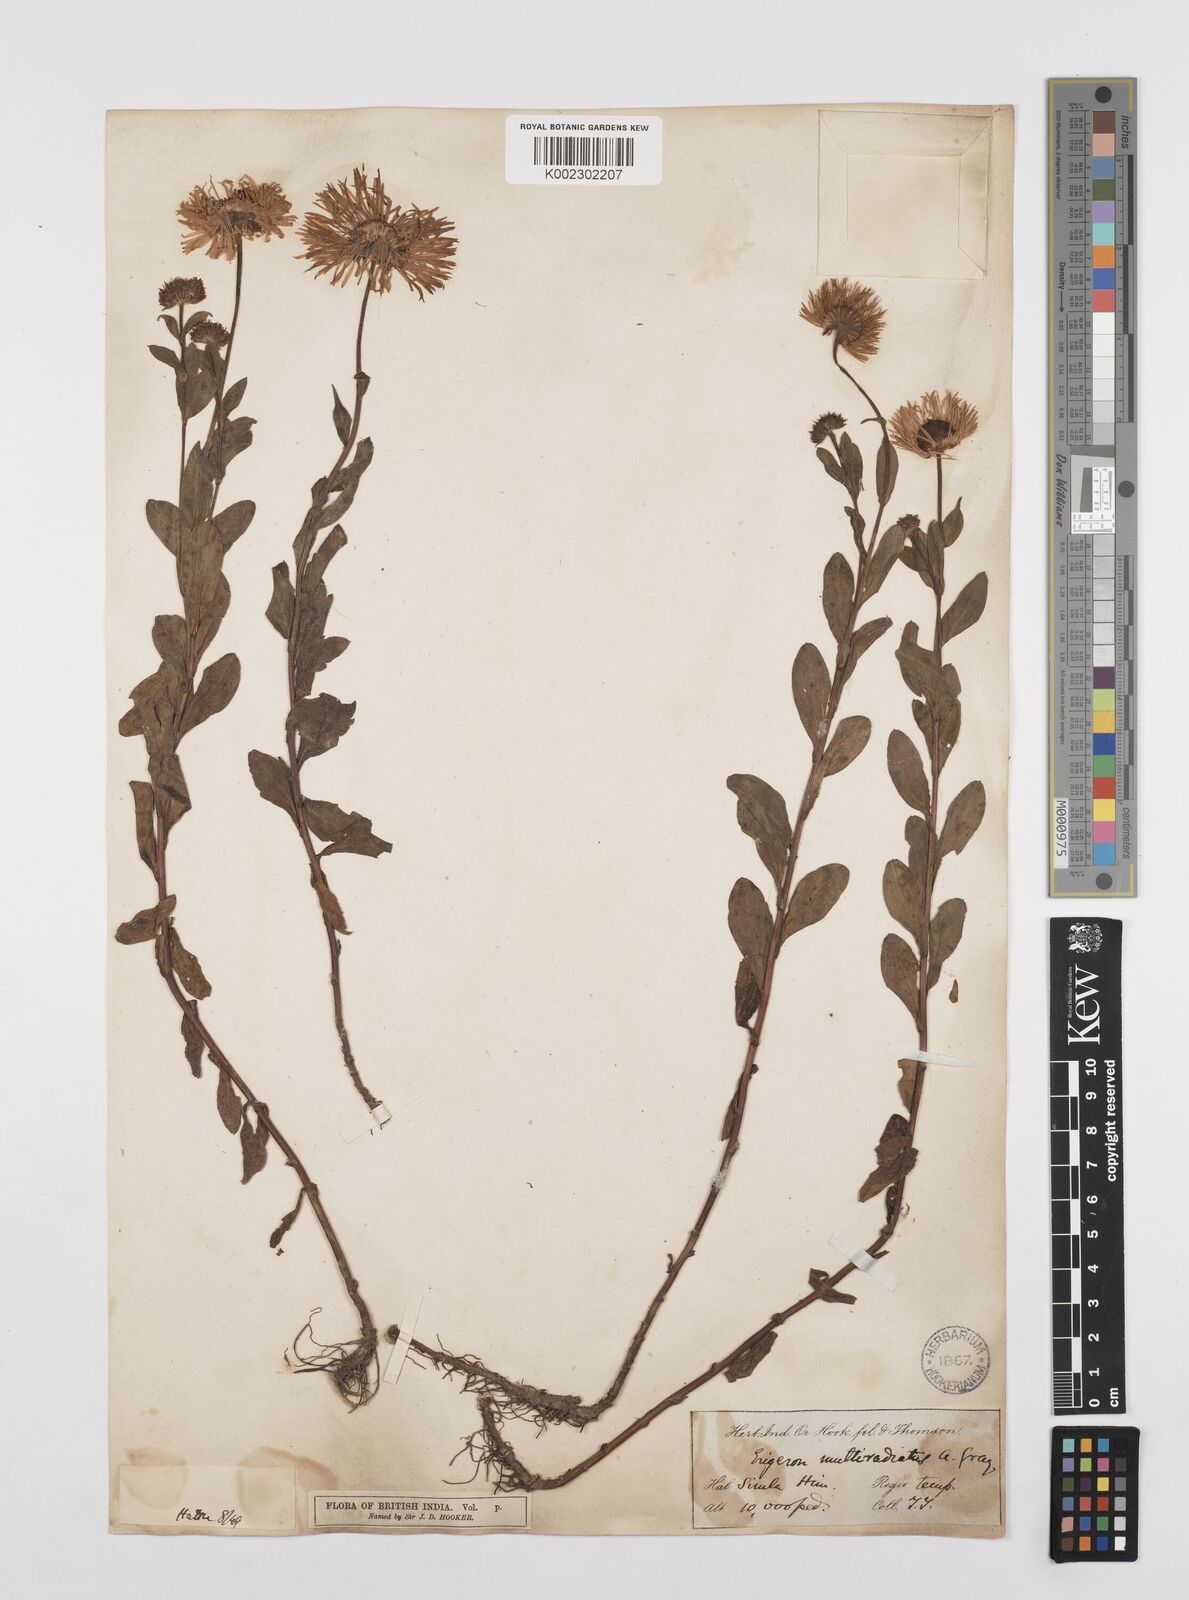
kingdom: Plantae
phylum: Tracheophyta
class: Magnoliopsida
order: Asterales
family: Asteraceae
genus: Erigeron
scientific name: Erigeron multiradiatus
